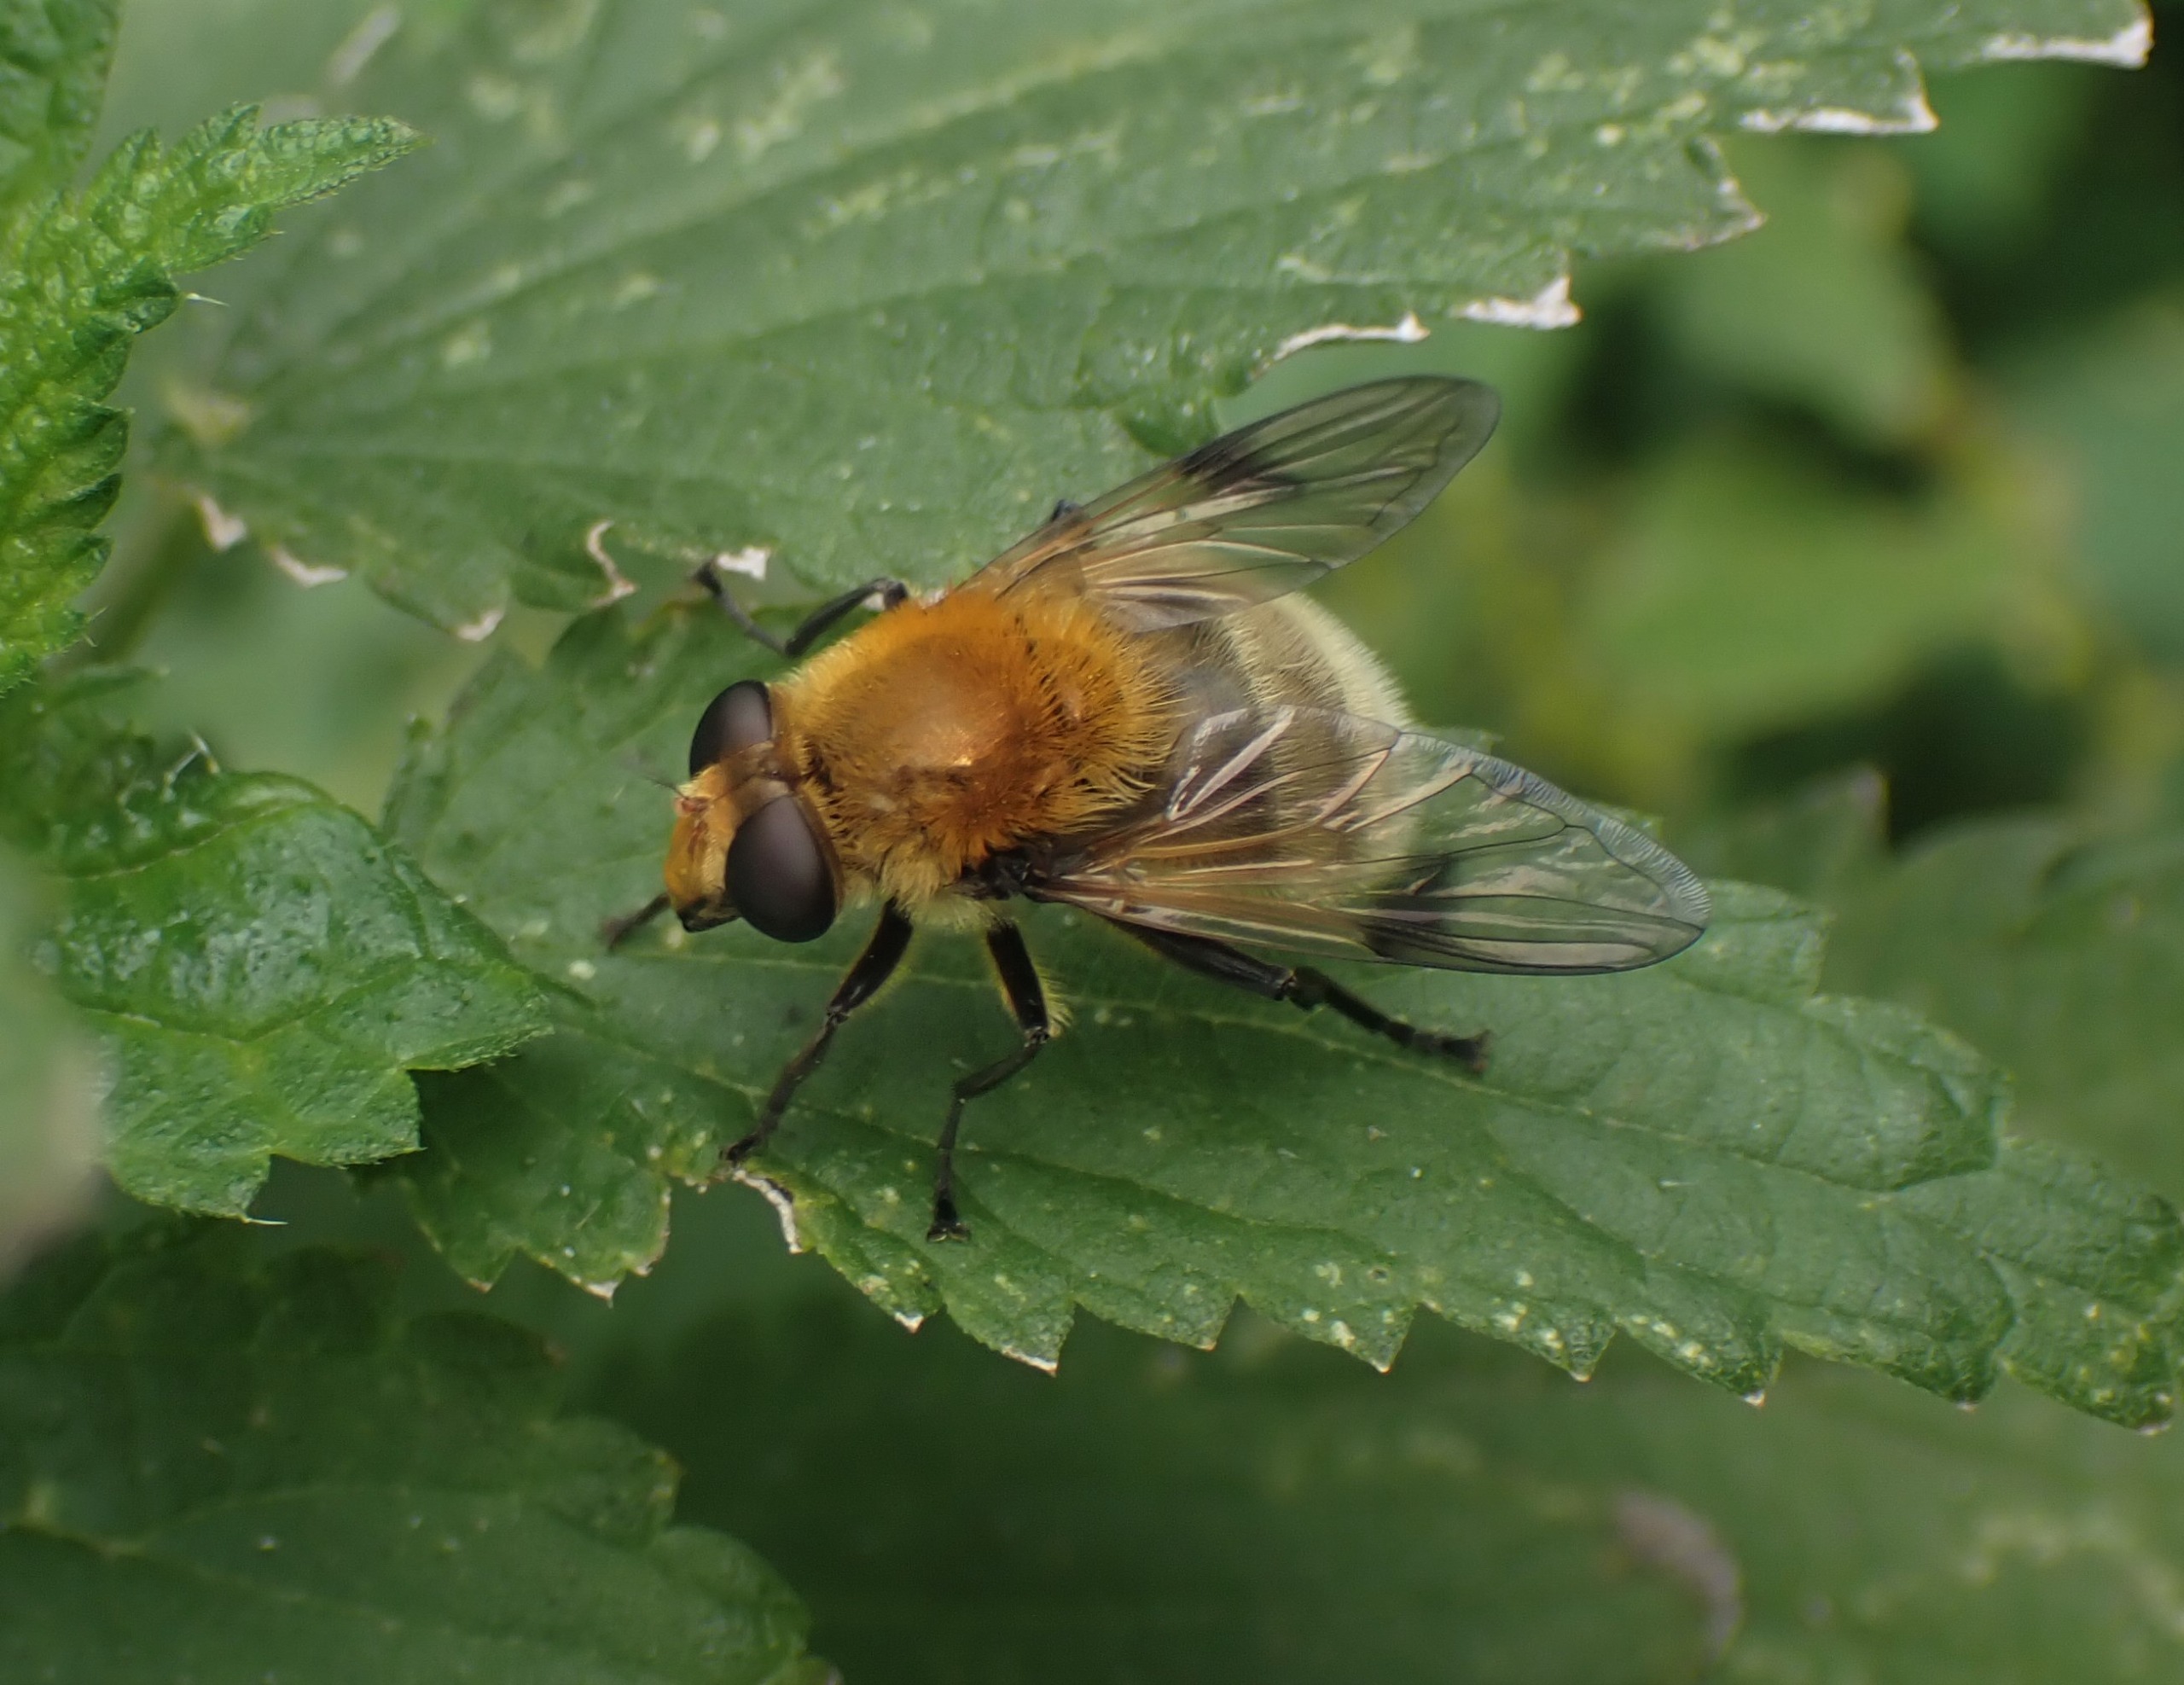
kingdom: Animalia
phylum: Arthropoda
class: Insecta
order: Diptera
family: Syrphidae
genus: Sericomyia
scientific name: Sericomyia superbiens
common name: Brun bjørnesvirreflue
